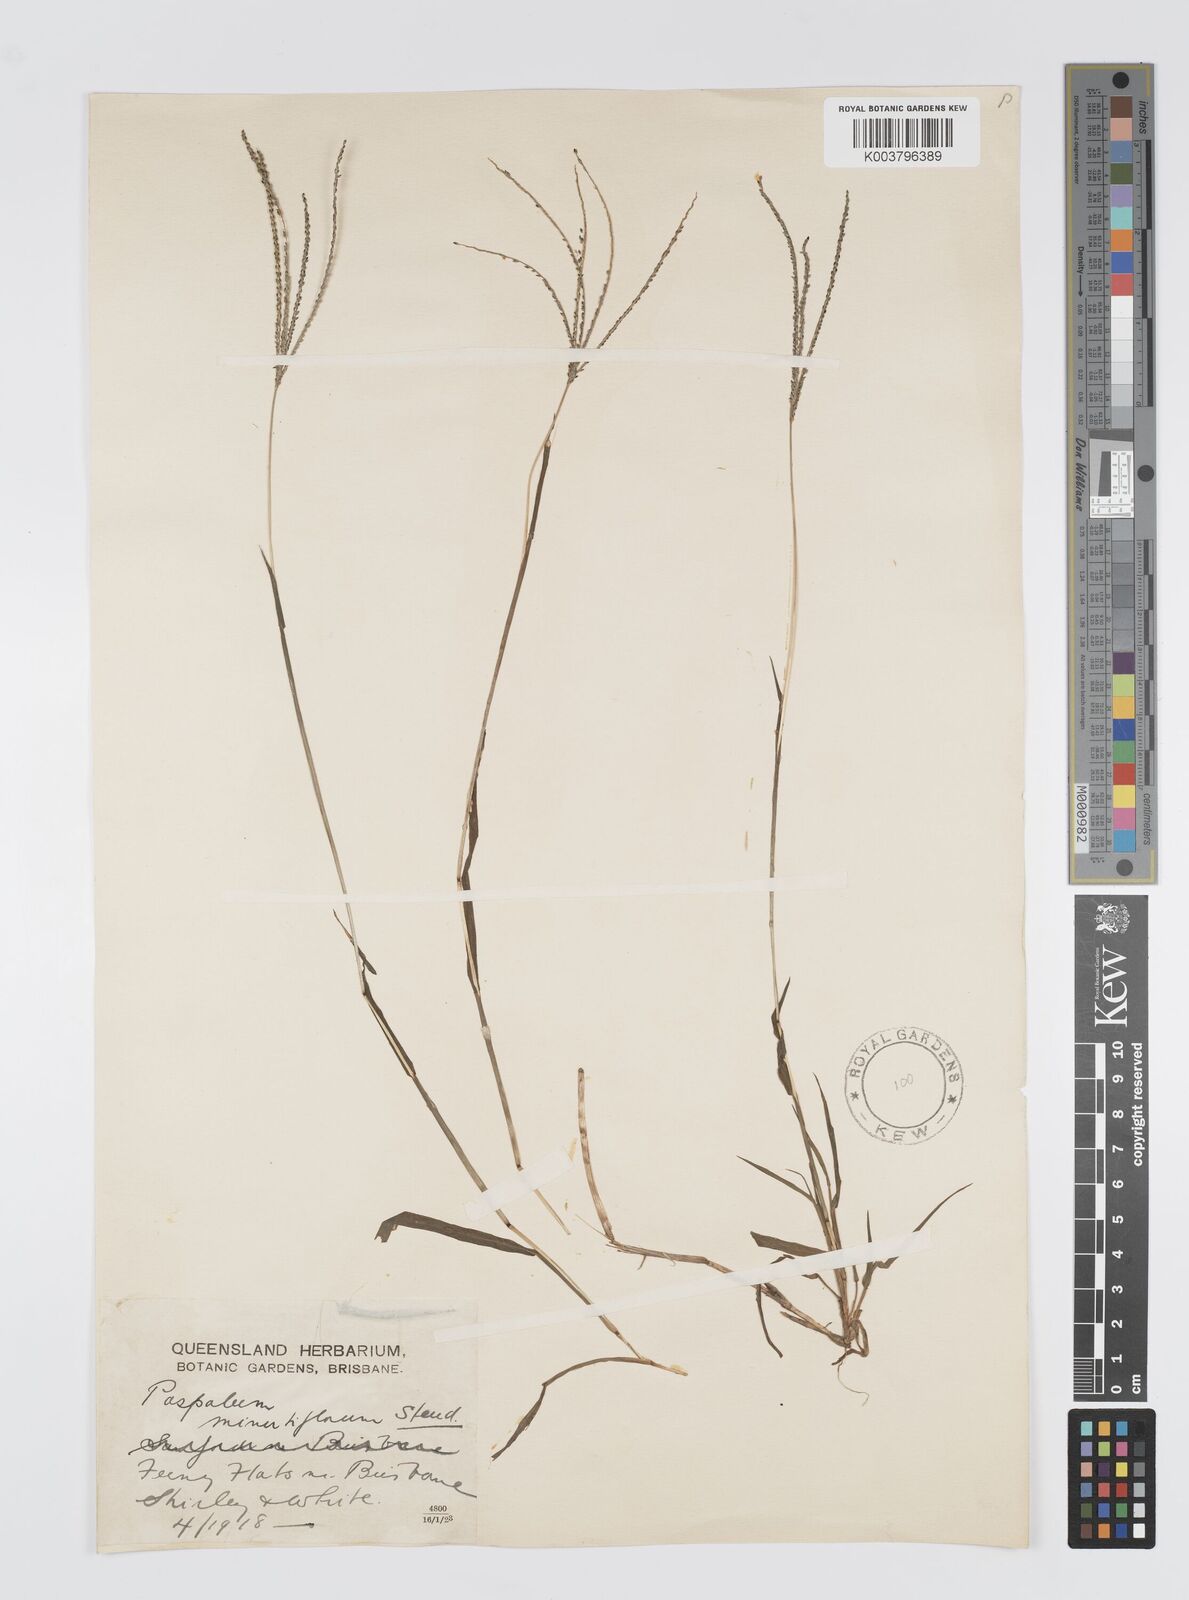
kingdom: Plantae
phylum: Tracheophyta
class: Liliopsida
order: Poales
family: Poaceae
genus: Digitaria
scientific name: Digitaria violascens
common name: Violet crabgrass
